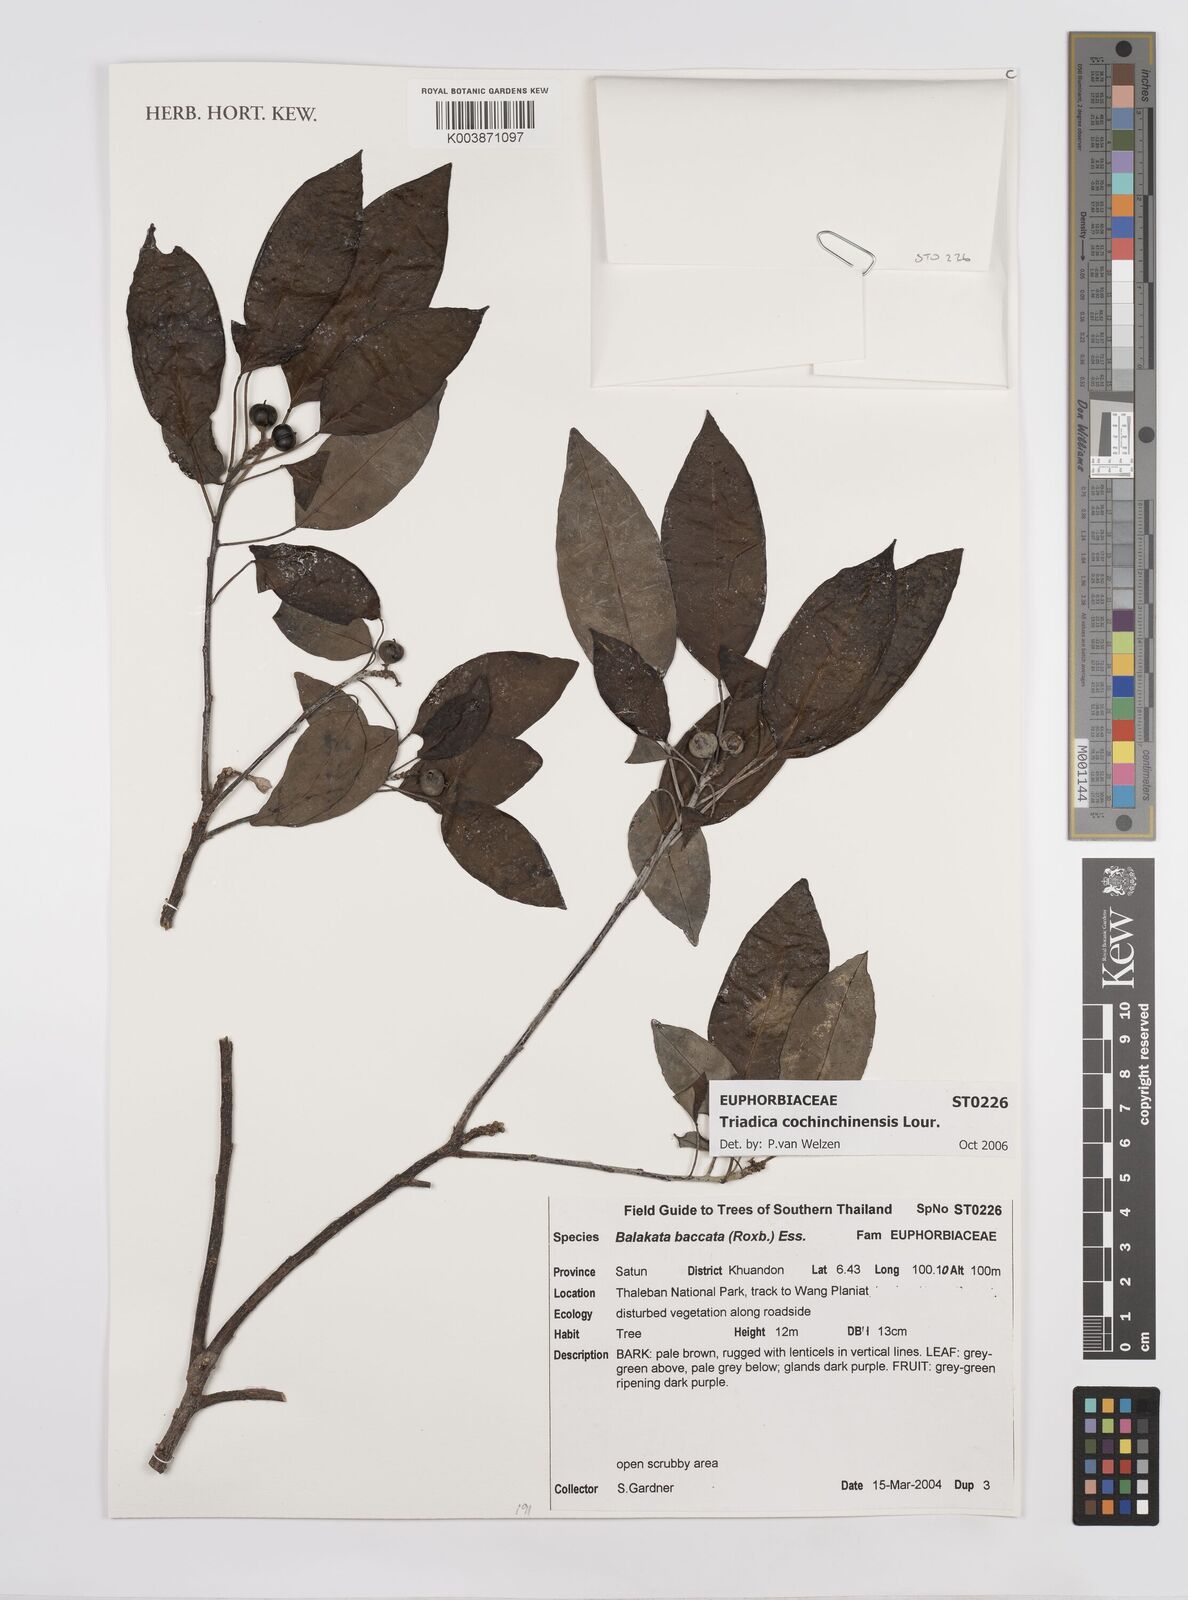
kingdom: Plantae
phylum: Tracheophyta
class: Magnoliopsida
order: Malpighiales
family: Euphorbiaceae
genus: Triadica
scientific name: Triadica cochinchinensis
